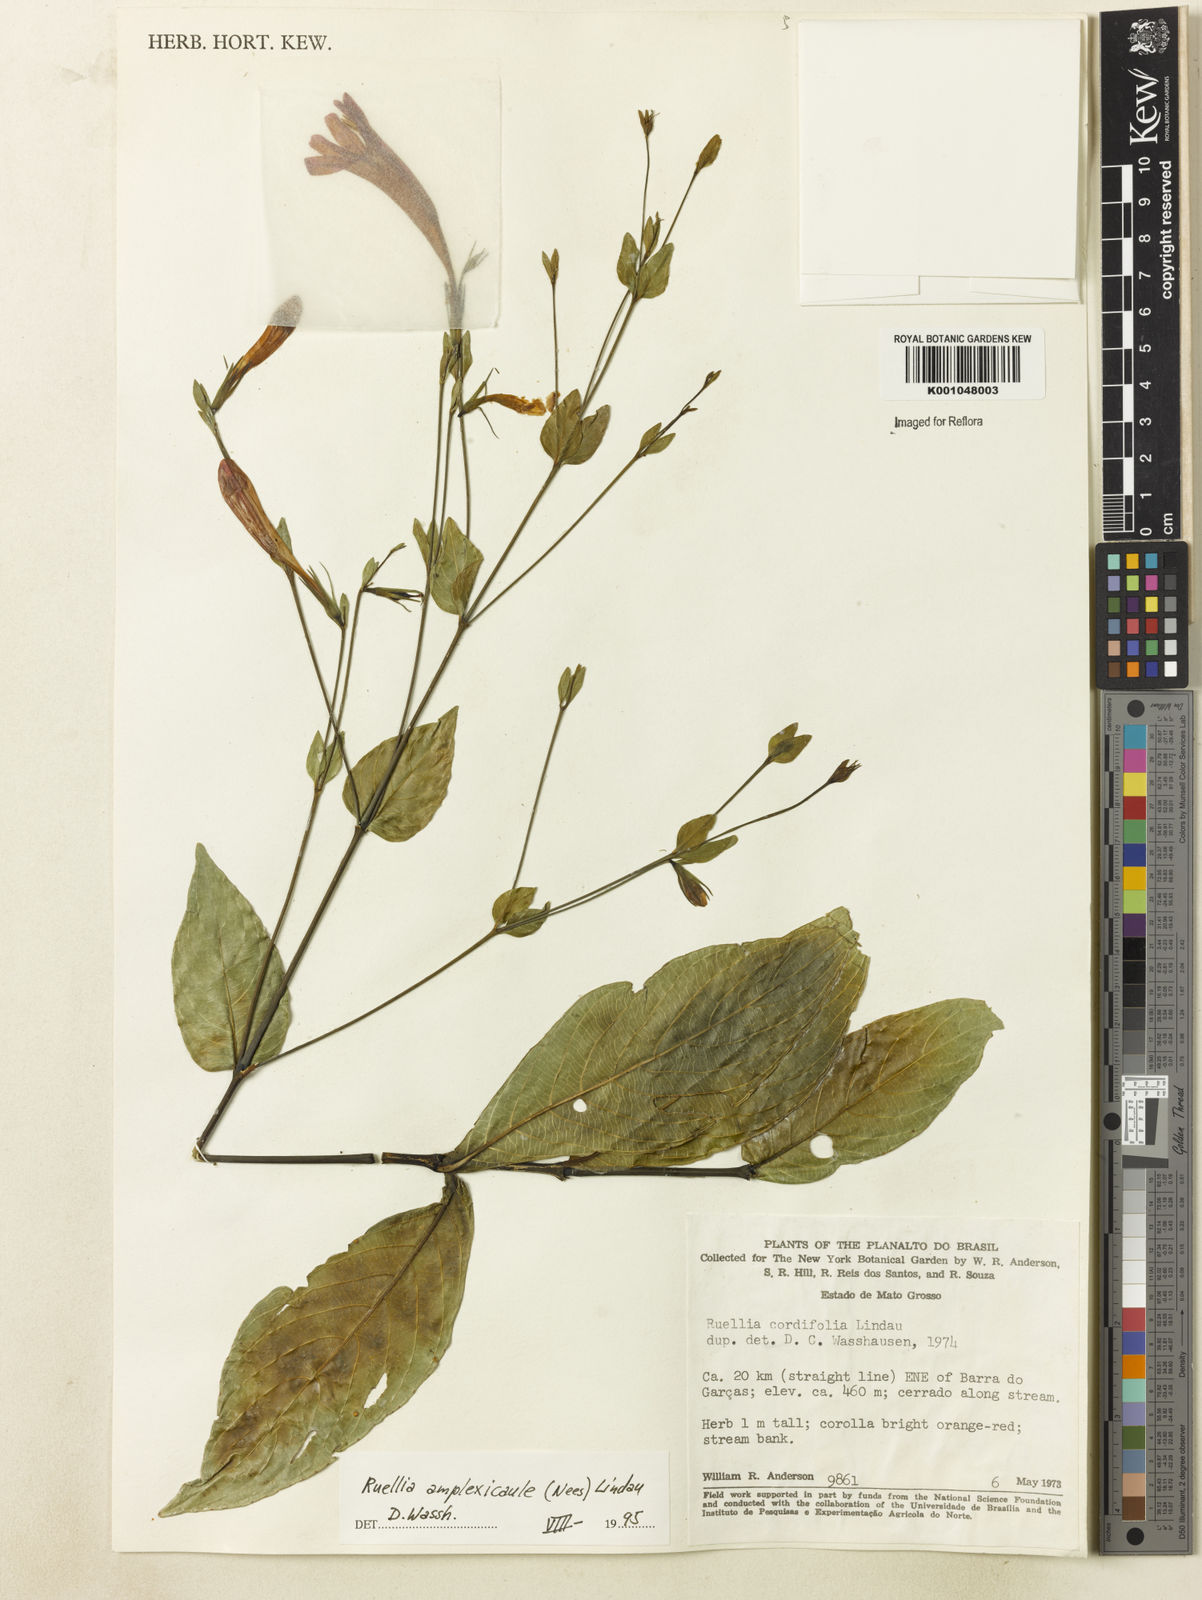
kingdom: Plantae
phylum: Tracheophyta
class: Magnoliopsida
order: Lamiales
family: Acanthaceae
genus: Ruellia
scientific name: Ruellia amplexicaulis
